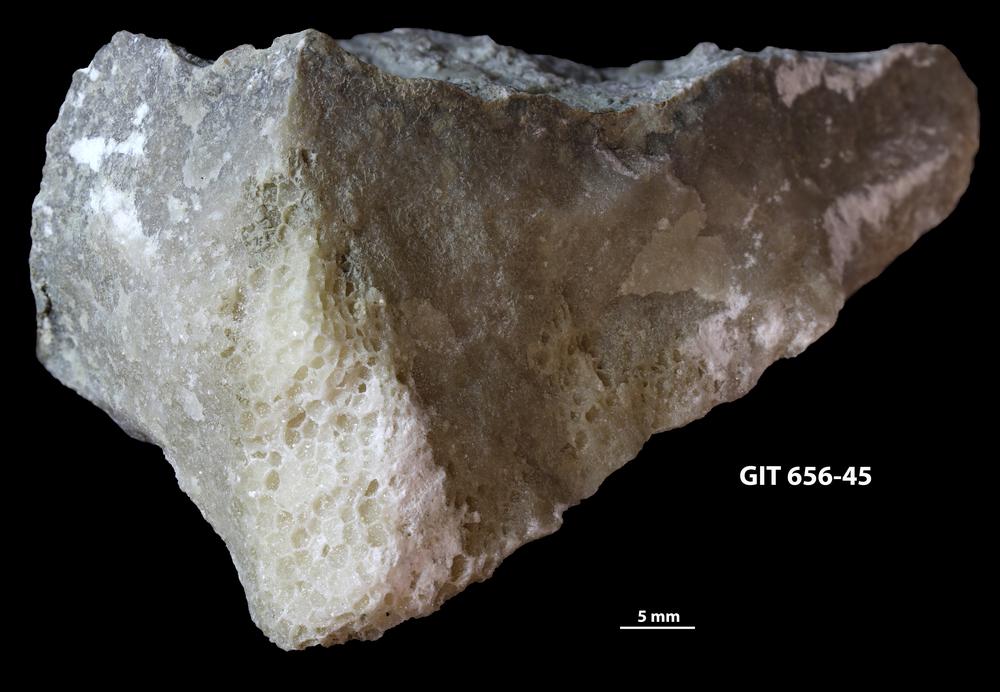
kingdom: Animalia
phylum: Cnidaria
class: Anthozoa
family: Favositidae
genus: Favosites
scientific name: Favosites
